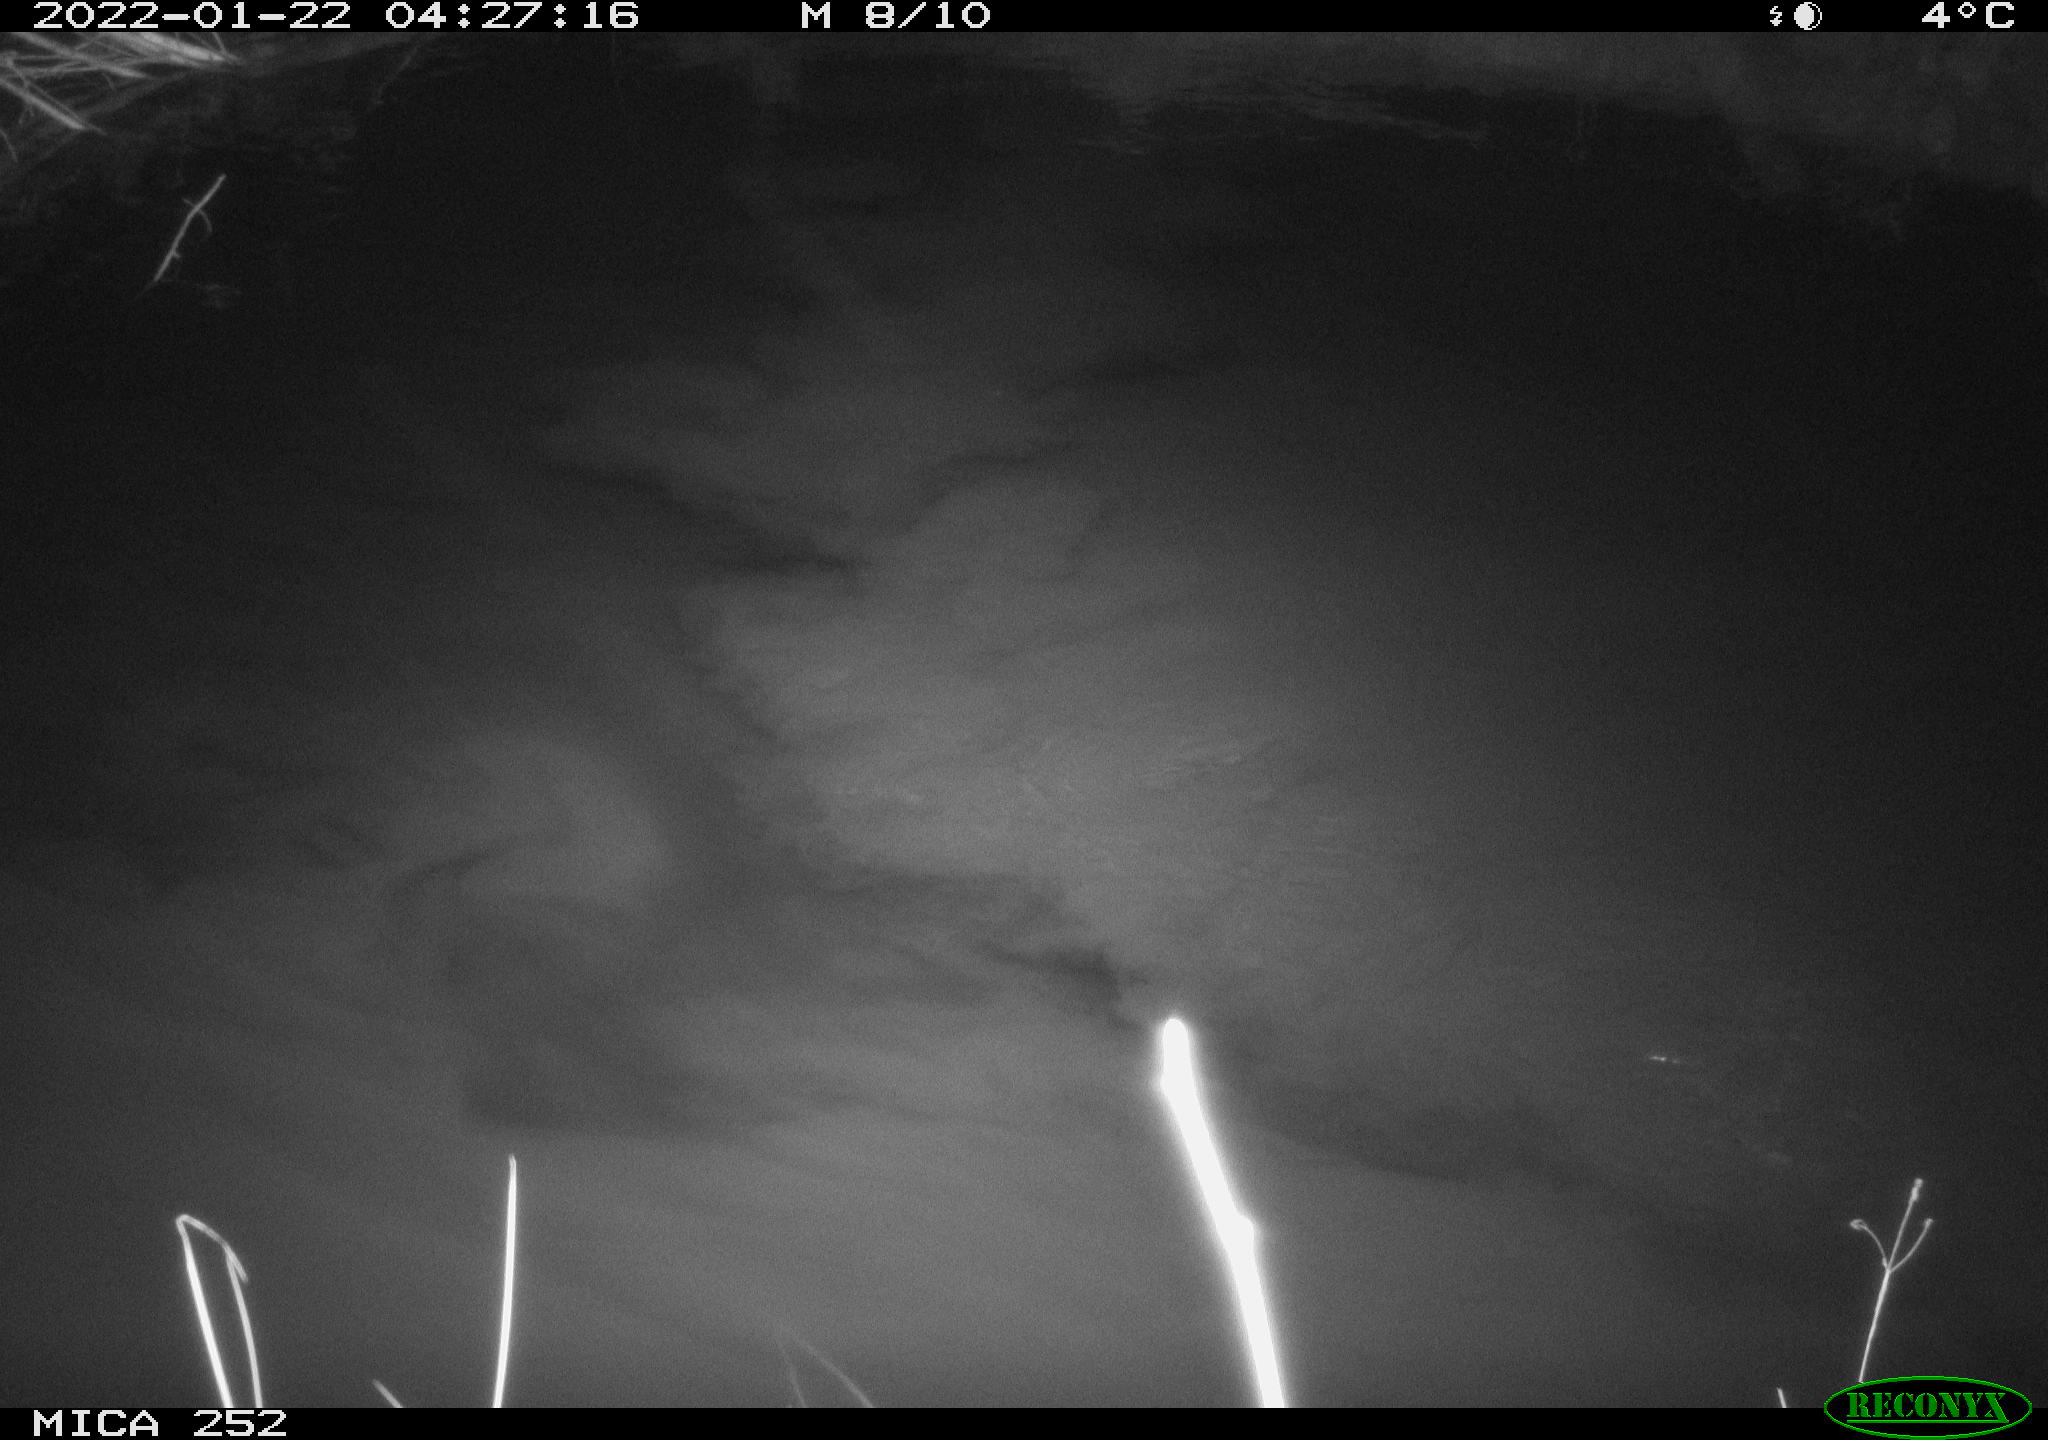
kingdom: Animalia
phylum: Chordata
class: Mammalia
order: Rodentia
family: Castoridae
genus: Castor
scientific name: Castor fiber
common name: Eurasian beaver
